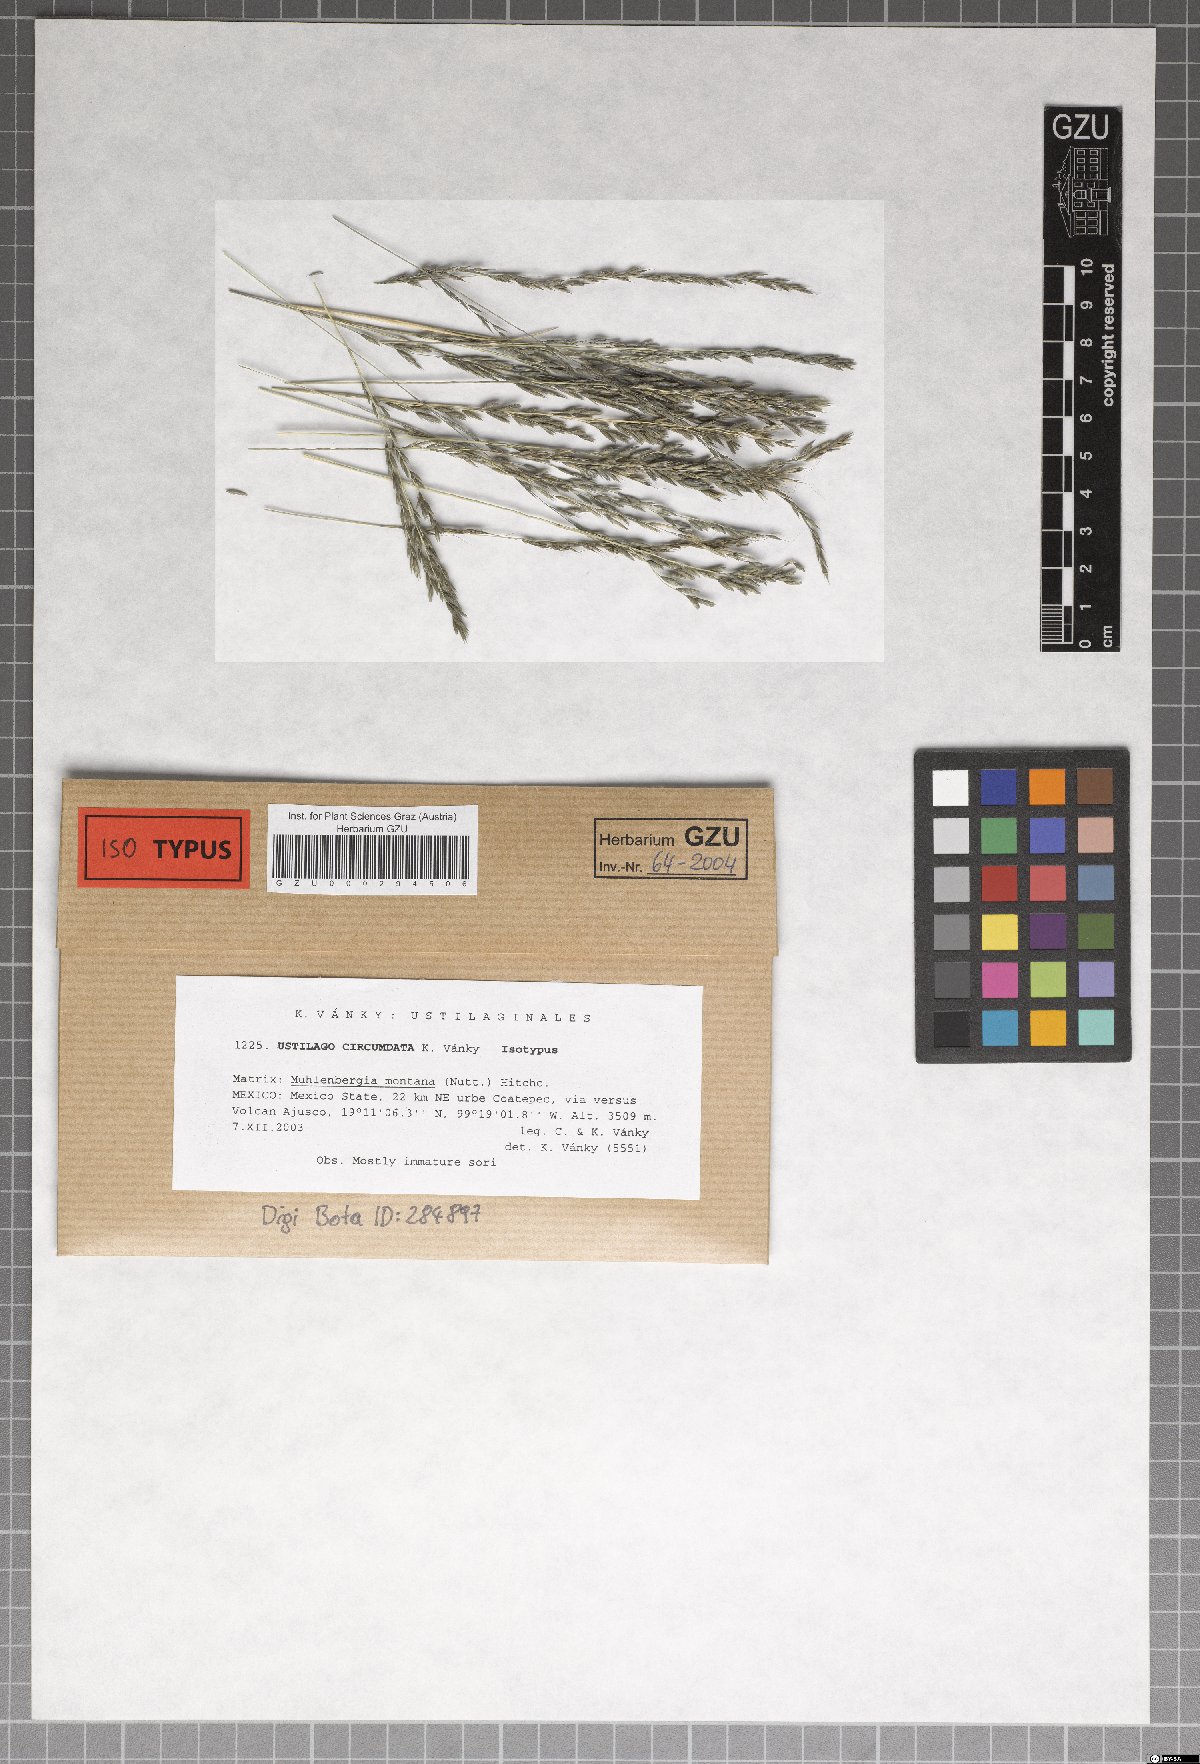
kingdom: Fungi
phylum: Basidiomycota
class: Ustilaginomycetes
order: Ustilaginales
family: Ustilaginaceae
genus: Ustilago
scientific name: Ustilago circumdata
